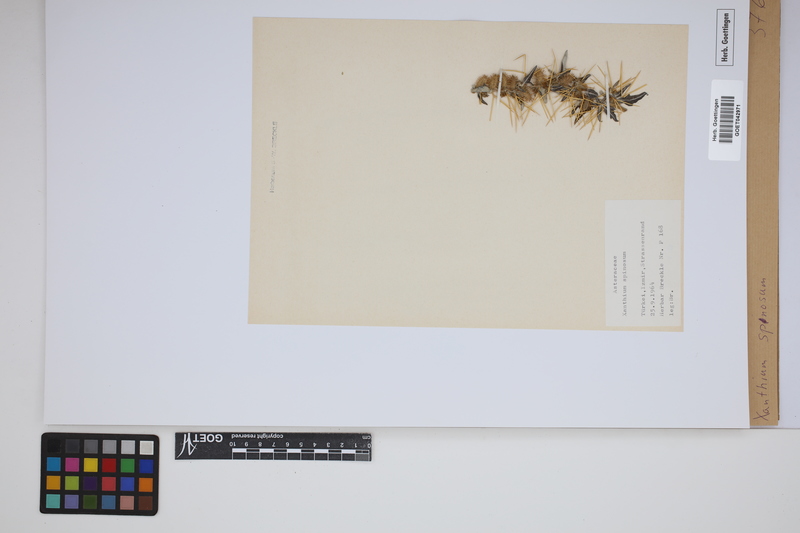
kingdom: Plantae
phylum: Tracheophyta
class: Magnoliopsida
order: Asterales
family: Asteraceae
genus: Xanthium
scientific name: Xanthium spinosum
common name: Spiny cocklebur
